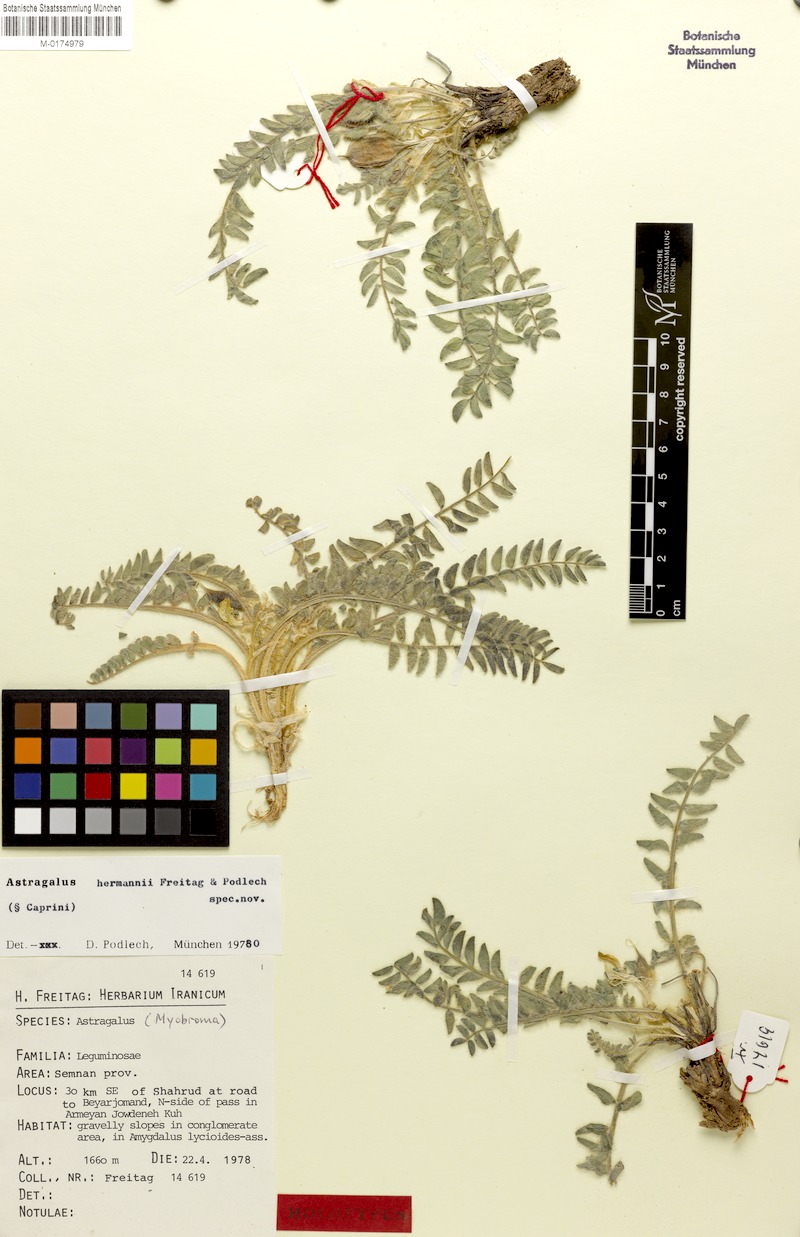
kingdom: Plantae
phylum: Tracheophyta
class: Magnoliopsida
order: Fabales
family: Fabaceae
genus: Astragalus
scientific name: Astragalus hermannii
